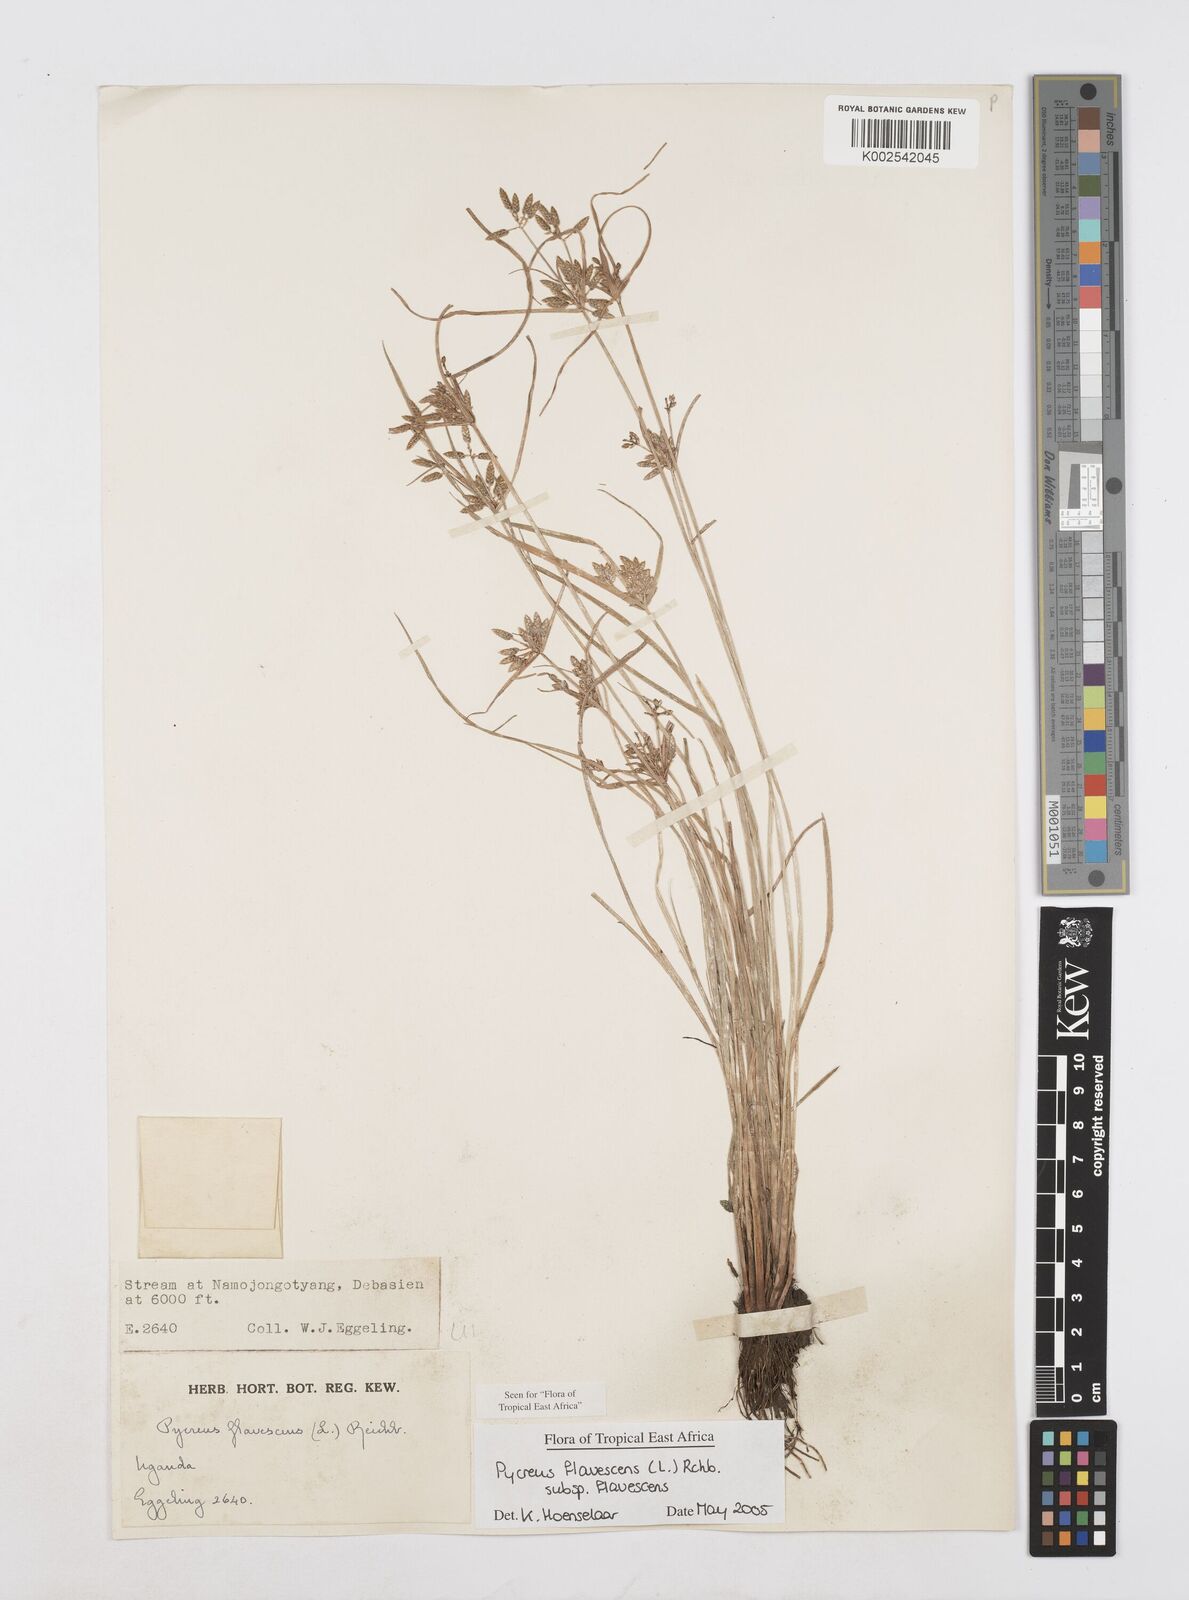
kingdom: Plantae
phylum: Tracheophyta
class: Liliopsida
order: Poales
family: Cyperaceae
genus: Cyperus
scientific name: Cyperus flavescens
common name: Yellow galingale
